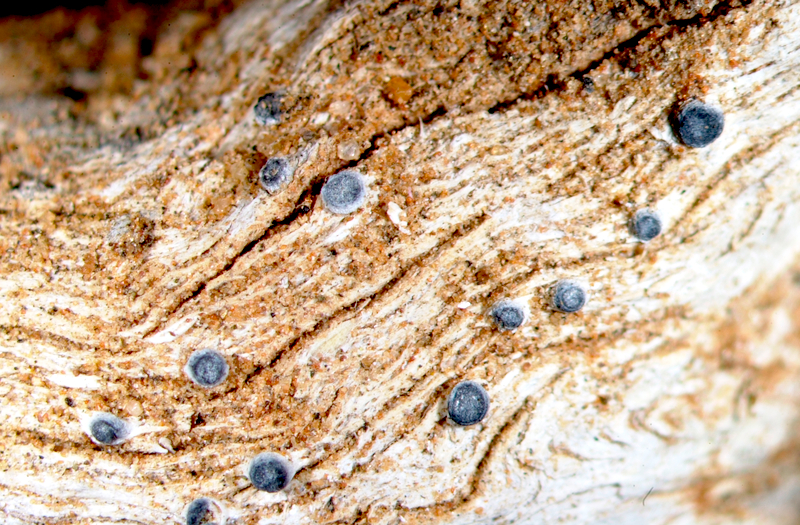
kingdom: Fungi
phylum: Ascomycota
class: Arthoniomycetes
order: Arthoniales
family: Opegraphaceae
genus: Opegrapha
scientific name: Opegrapha
